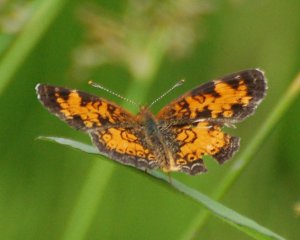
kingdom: Animalia
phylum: Arthropoda
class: Insecta
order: Lepidoptera
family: Nymphalidae
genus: Phyciodes
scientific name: Phyciodes tharos
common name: Northern Crescent
